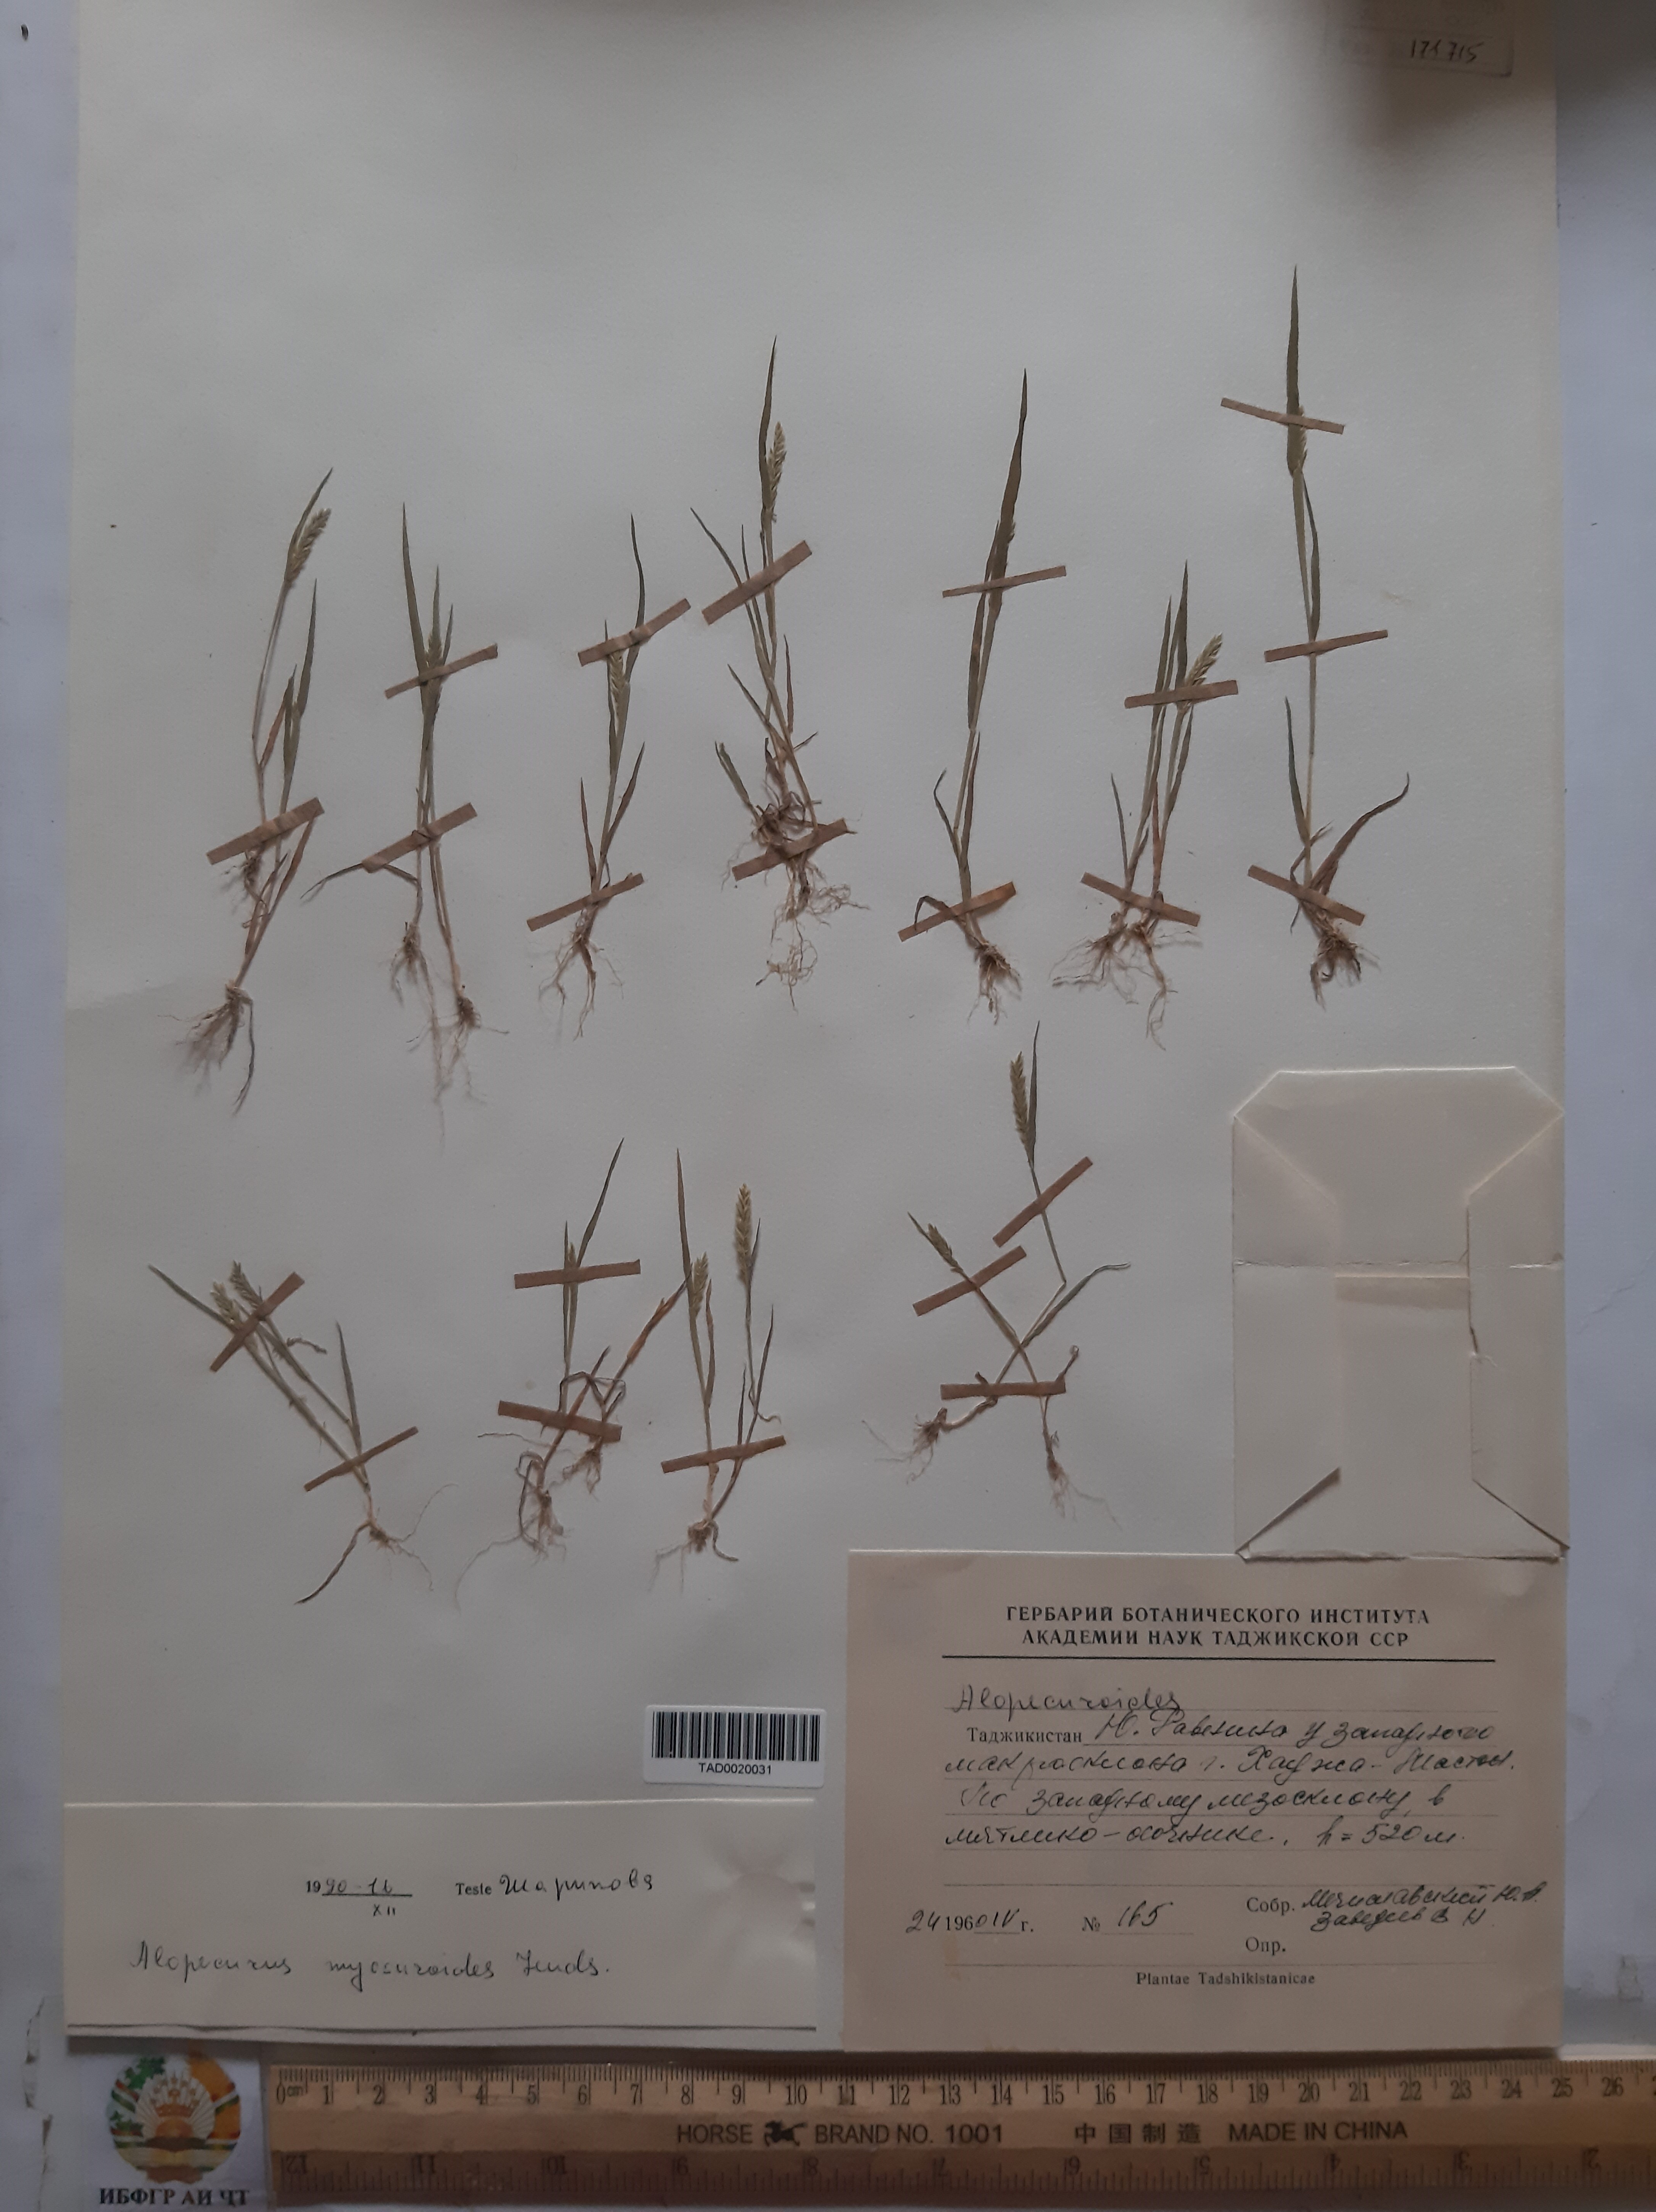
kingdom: Plantae
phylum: Tracheophyta
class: Liliopsida
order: Poales
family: Poaceae
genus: Alopecurus
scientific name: Alopecurus mucronatus
